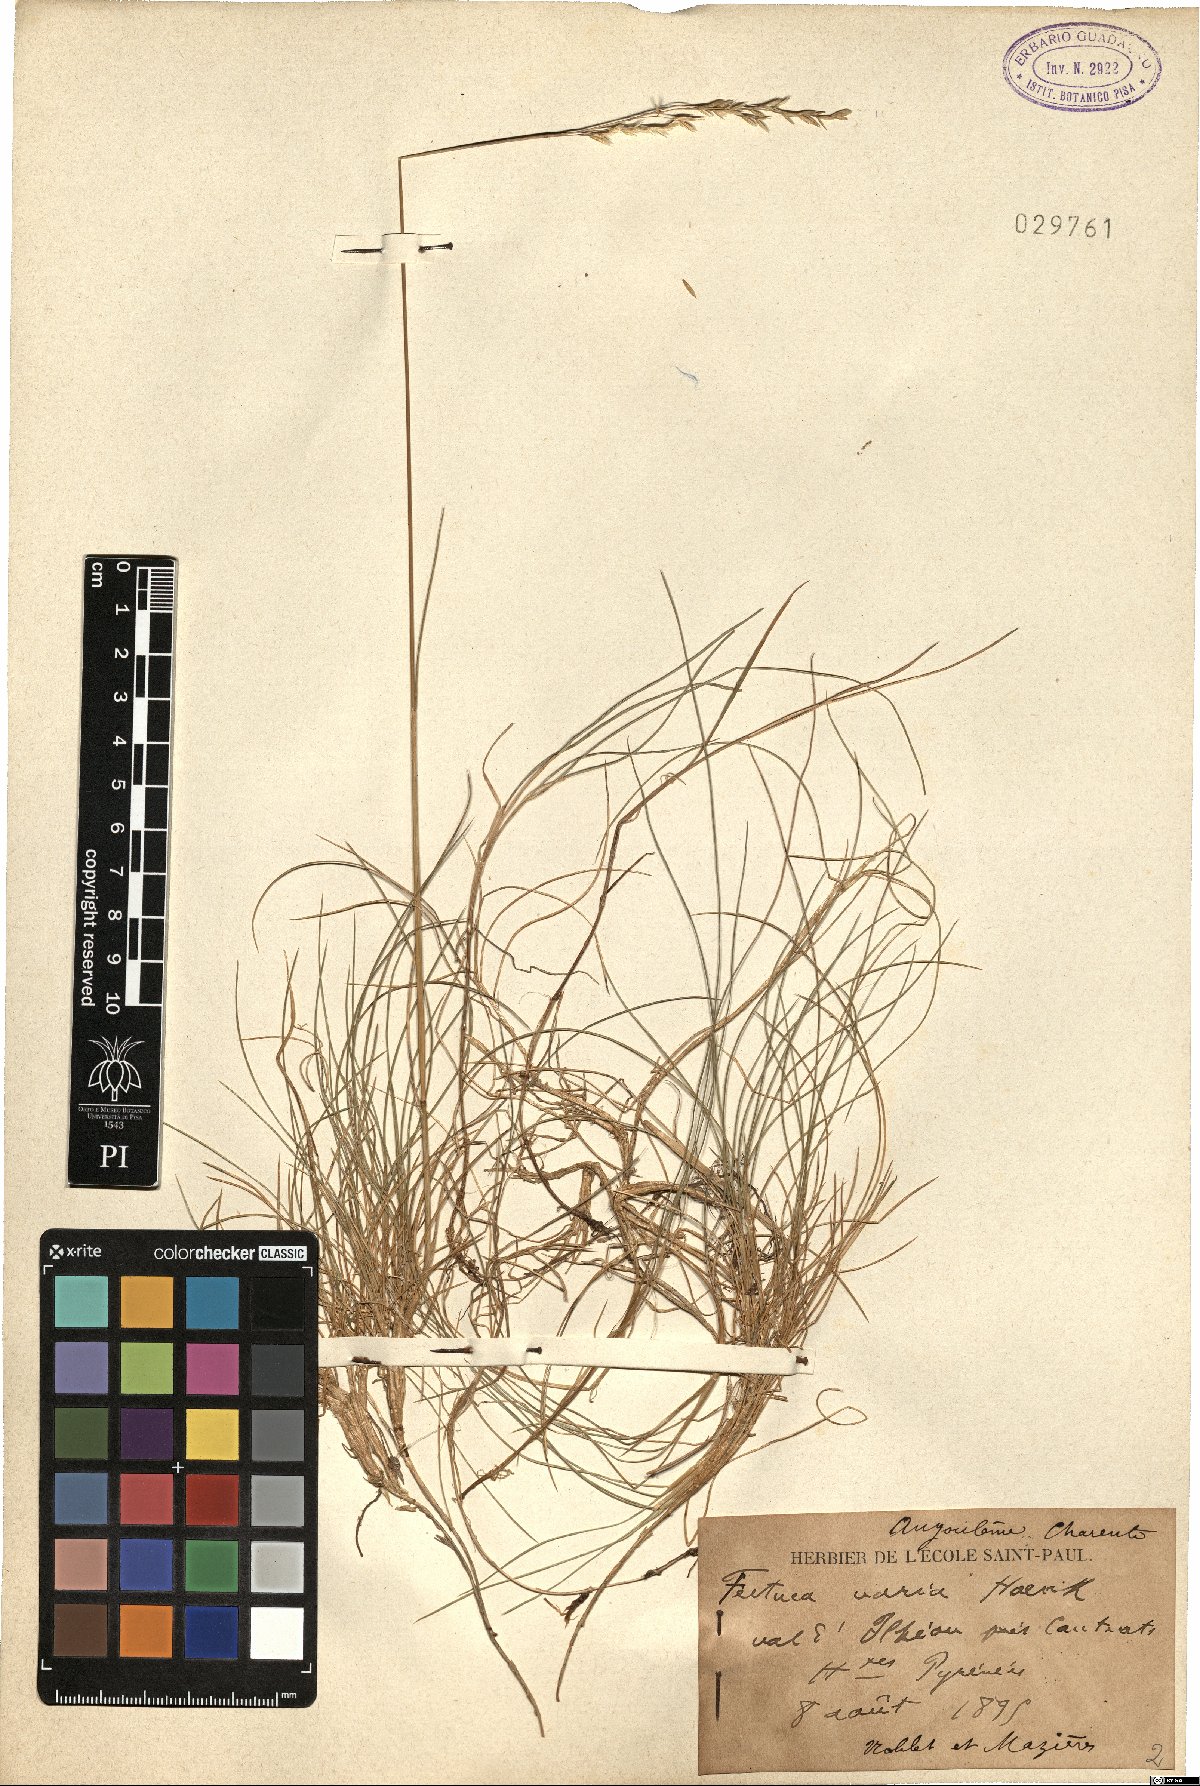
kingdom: Plantae
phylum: Tracheophyta
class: Liliopsida
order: Poales
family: Poaceae
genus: Festuca
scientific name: Festuca varia
